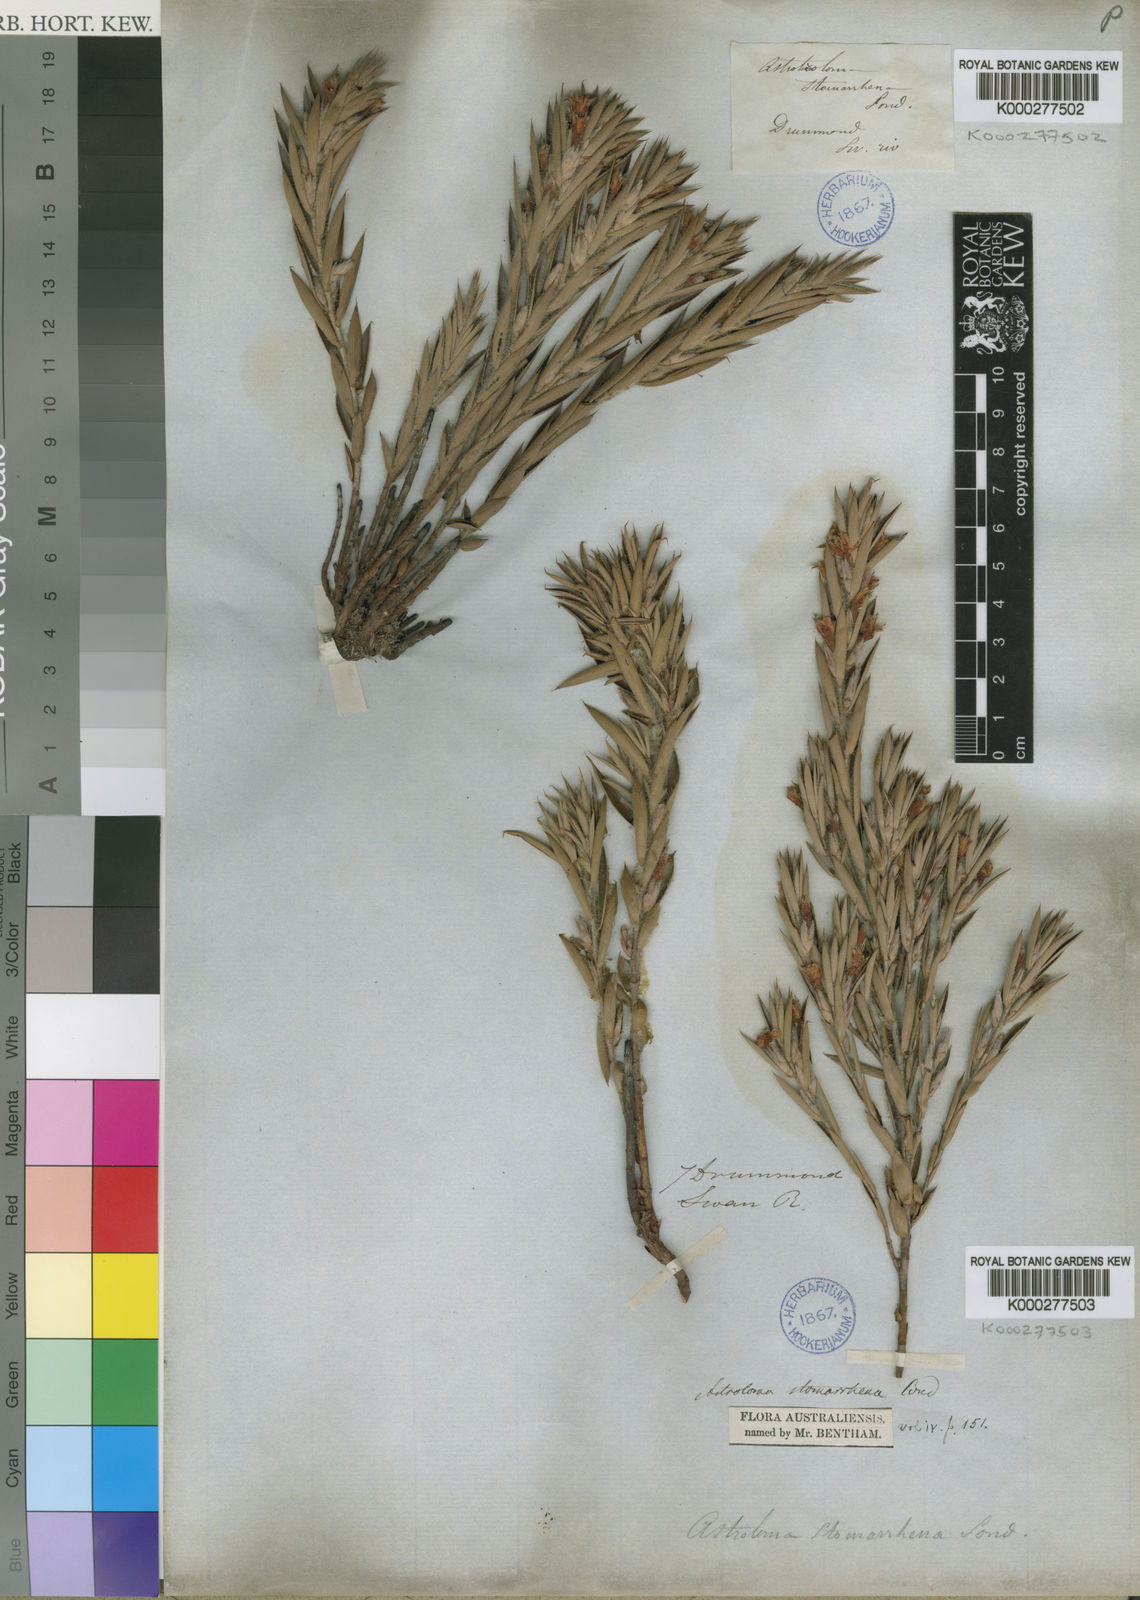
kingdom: Plantae
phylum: Tracheophyta
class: Magnoliopsida
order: Ericales
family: Ericaceae
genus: Styphelia
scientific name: Styphelia stomarrhena
